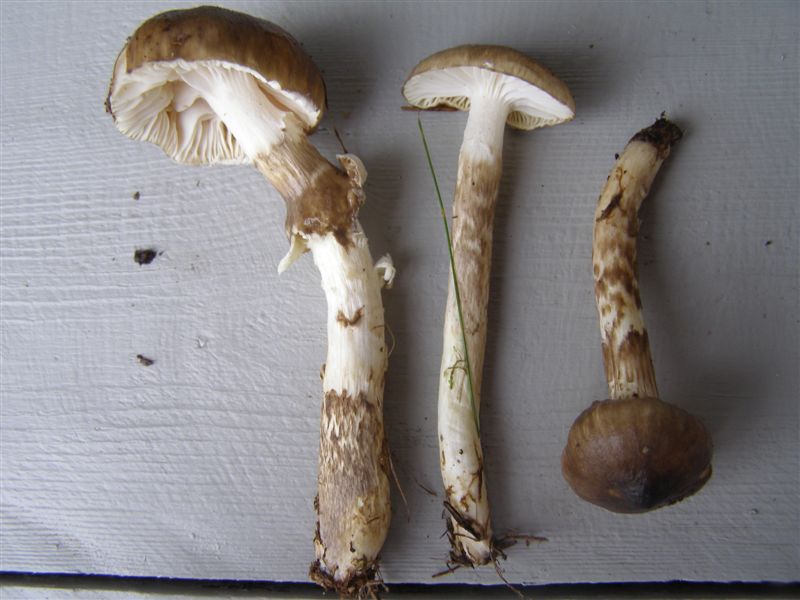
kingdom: Fungi
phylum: Basidiomycota
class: Agaricomycetes
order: Agaricales
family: Hygrophoraceae
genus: Hygrophorus
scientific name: Hygrophorus olivaceoalbus
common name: hvidbrun sneglehat
